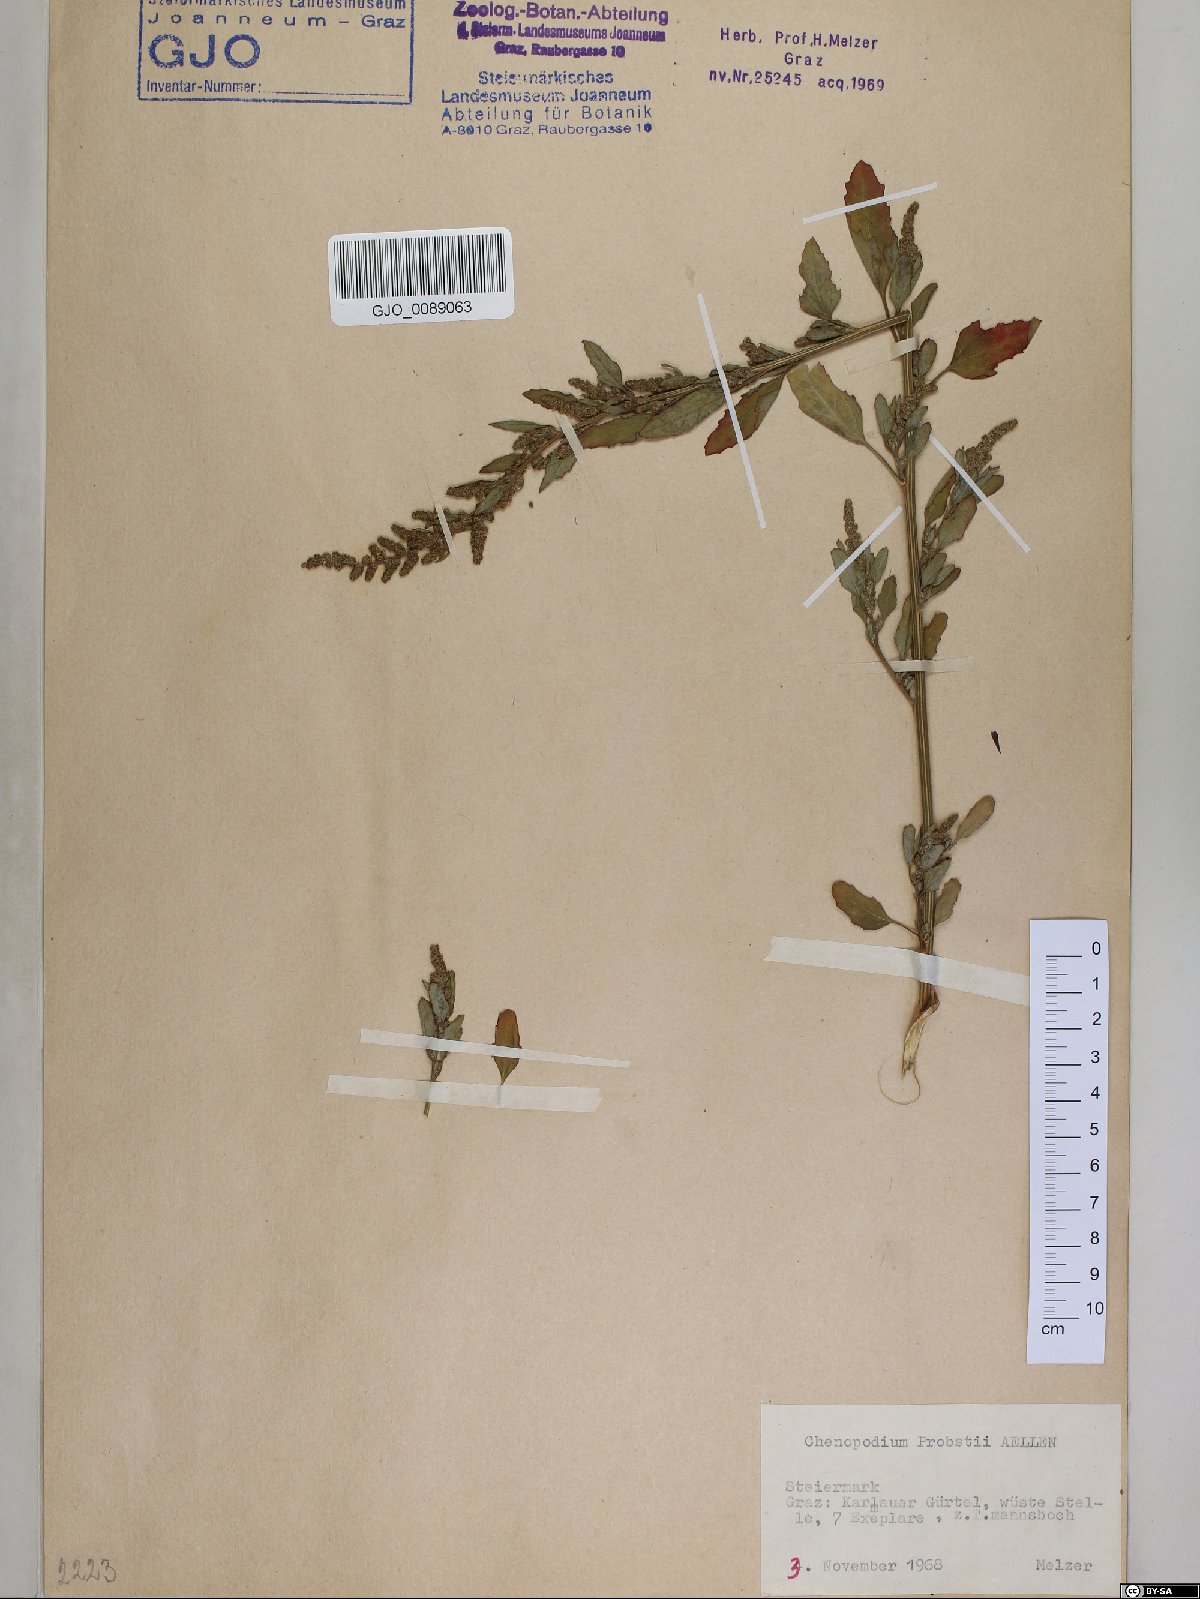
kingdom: Plantae
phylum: Tracheophyta
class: Magnoliopsida
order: Caryophyllales
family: Amaranthaceae
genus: Chenopodium
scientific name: Chenopodium probstii
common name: Probst's goosefoot
